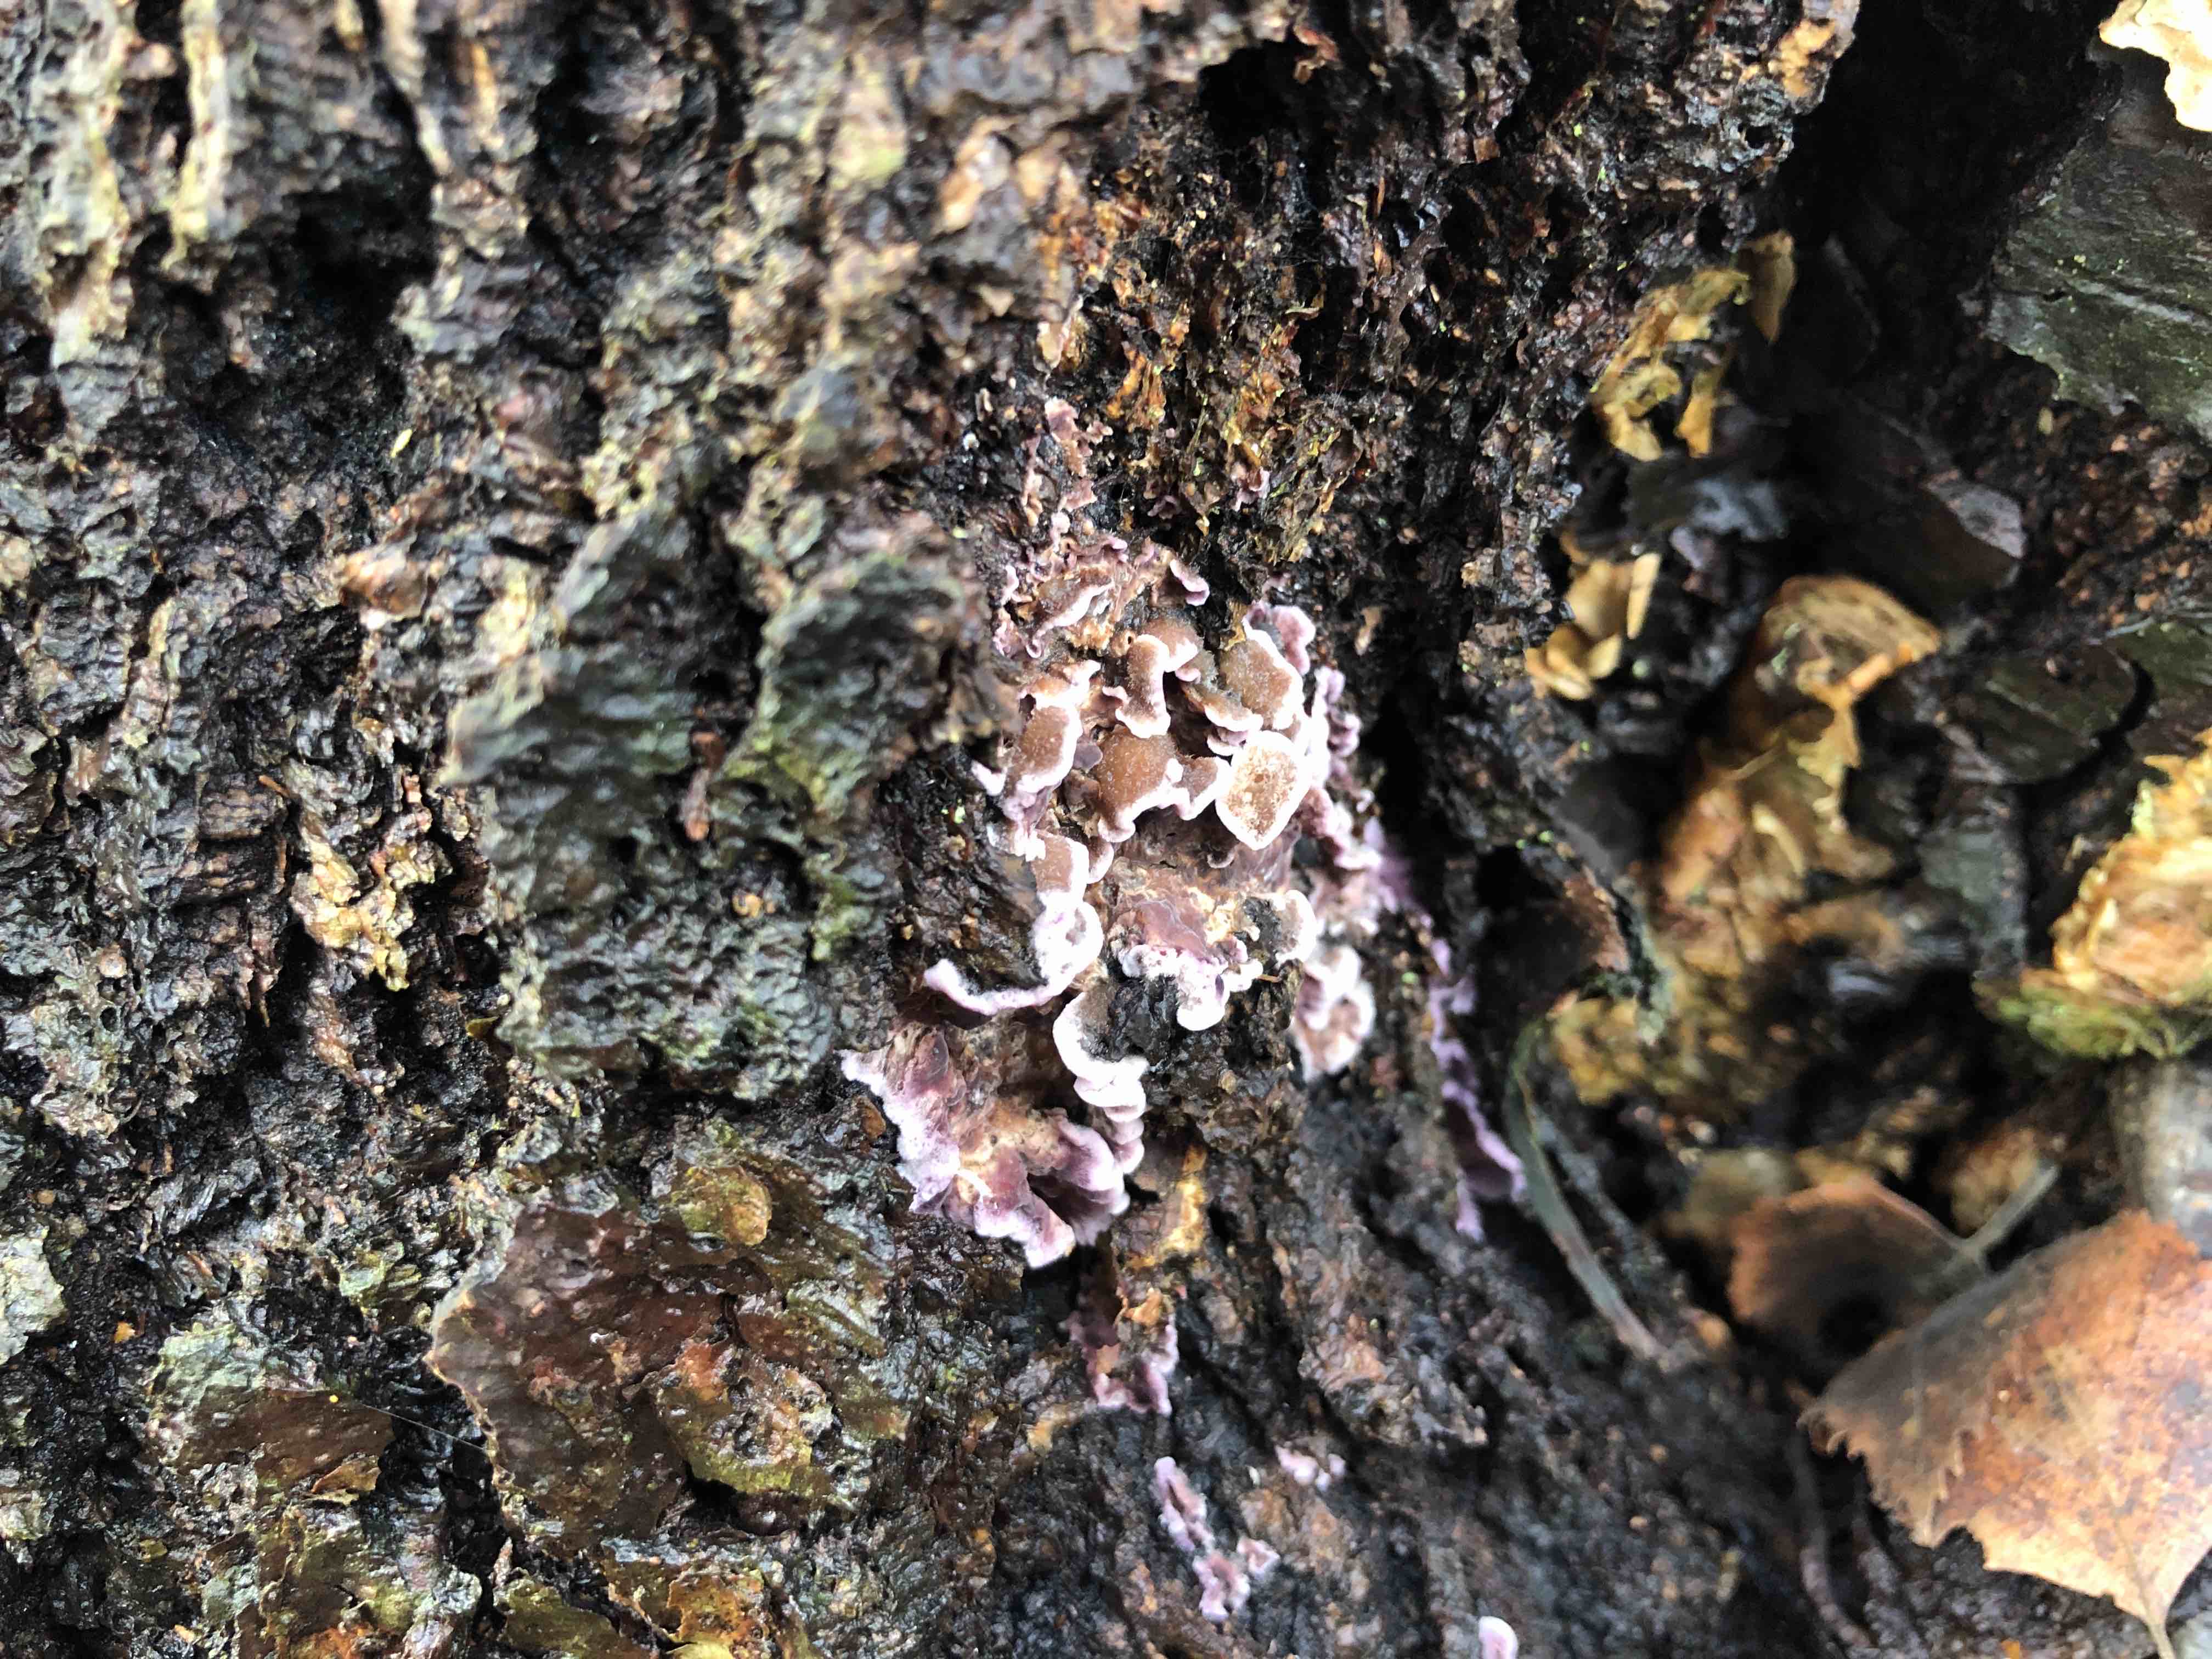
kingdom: Fungi
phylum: Basidiomycota
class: Agaricomycetes
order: Agaricales
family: Cyphellaceae
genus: Chondrostereum
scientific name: Chondrostereum purpureum
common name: purpurlædersvamp
